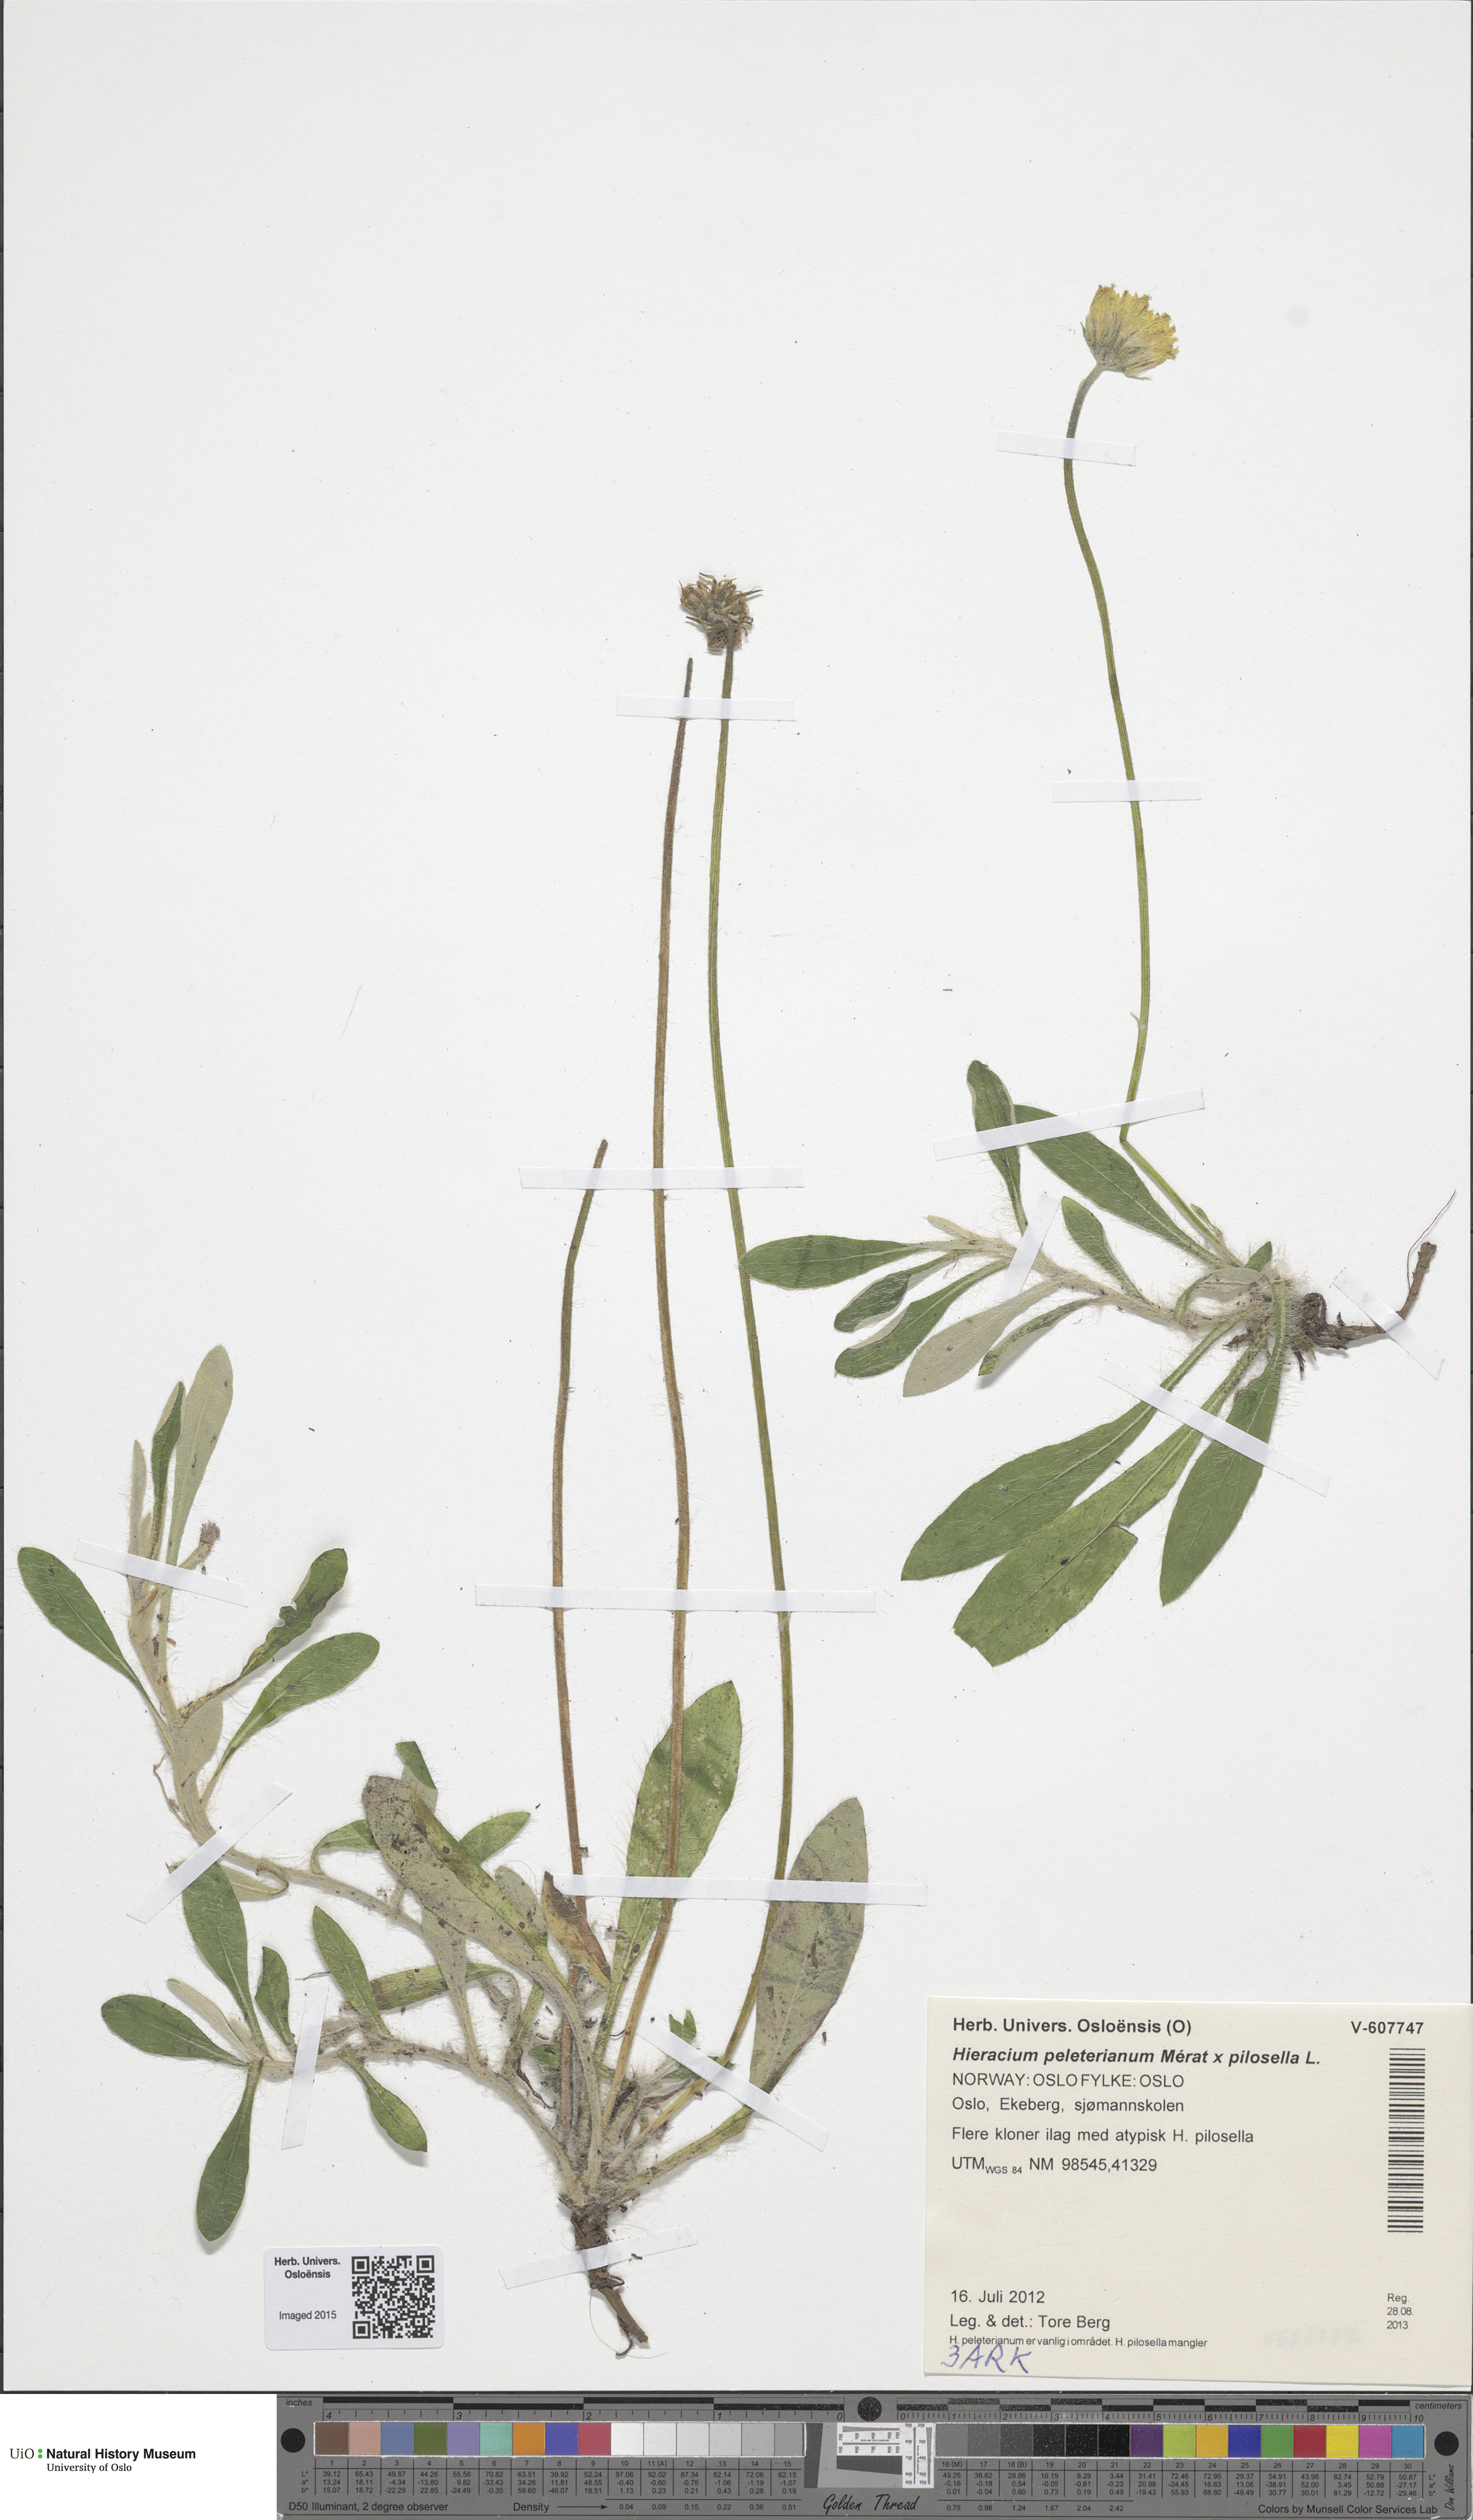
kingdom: Plantae
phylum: Tracheophyta
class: Magnoliopsida
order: Asterales
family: Asteraceae
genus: Pilosella
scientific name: Pilosella
